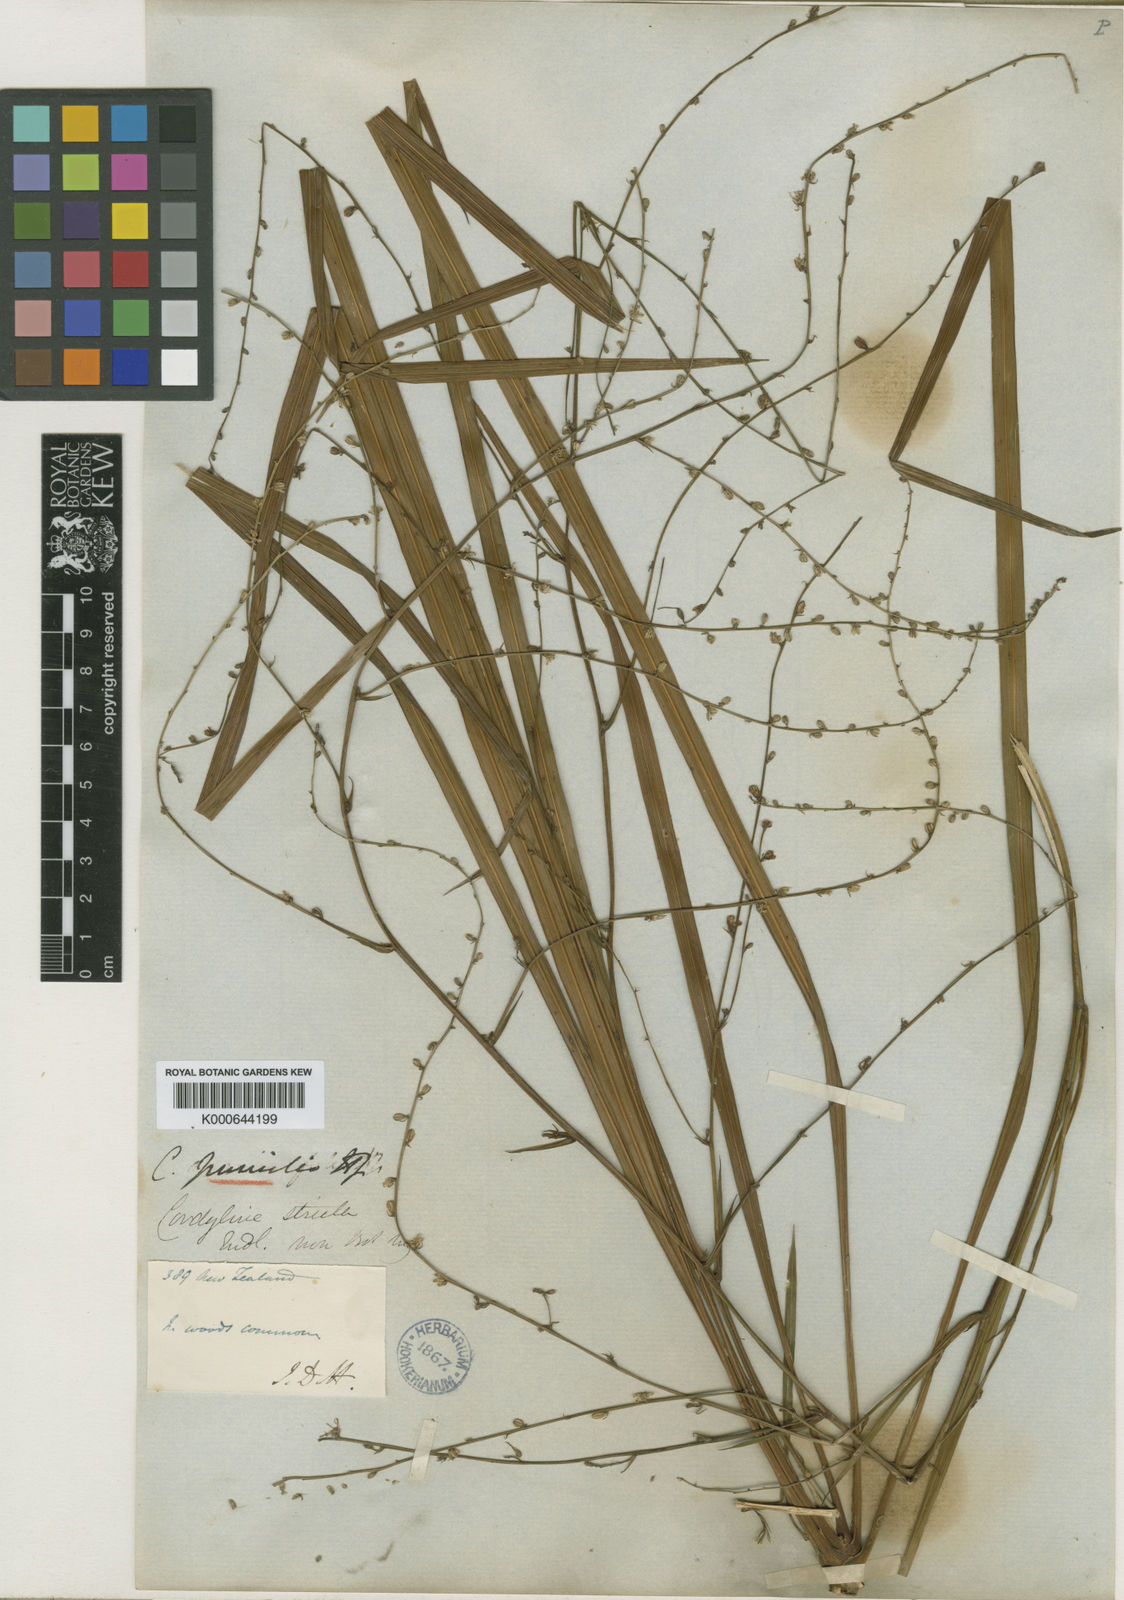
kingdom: Plantae
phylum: Tracheophyta
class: Liliopsida
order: Asparagales
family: Asparagaceae
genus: Cordyline
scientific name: Cordyline pumilio
